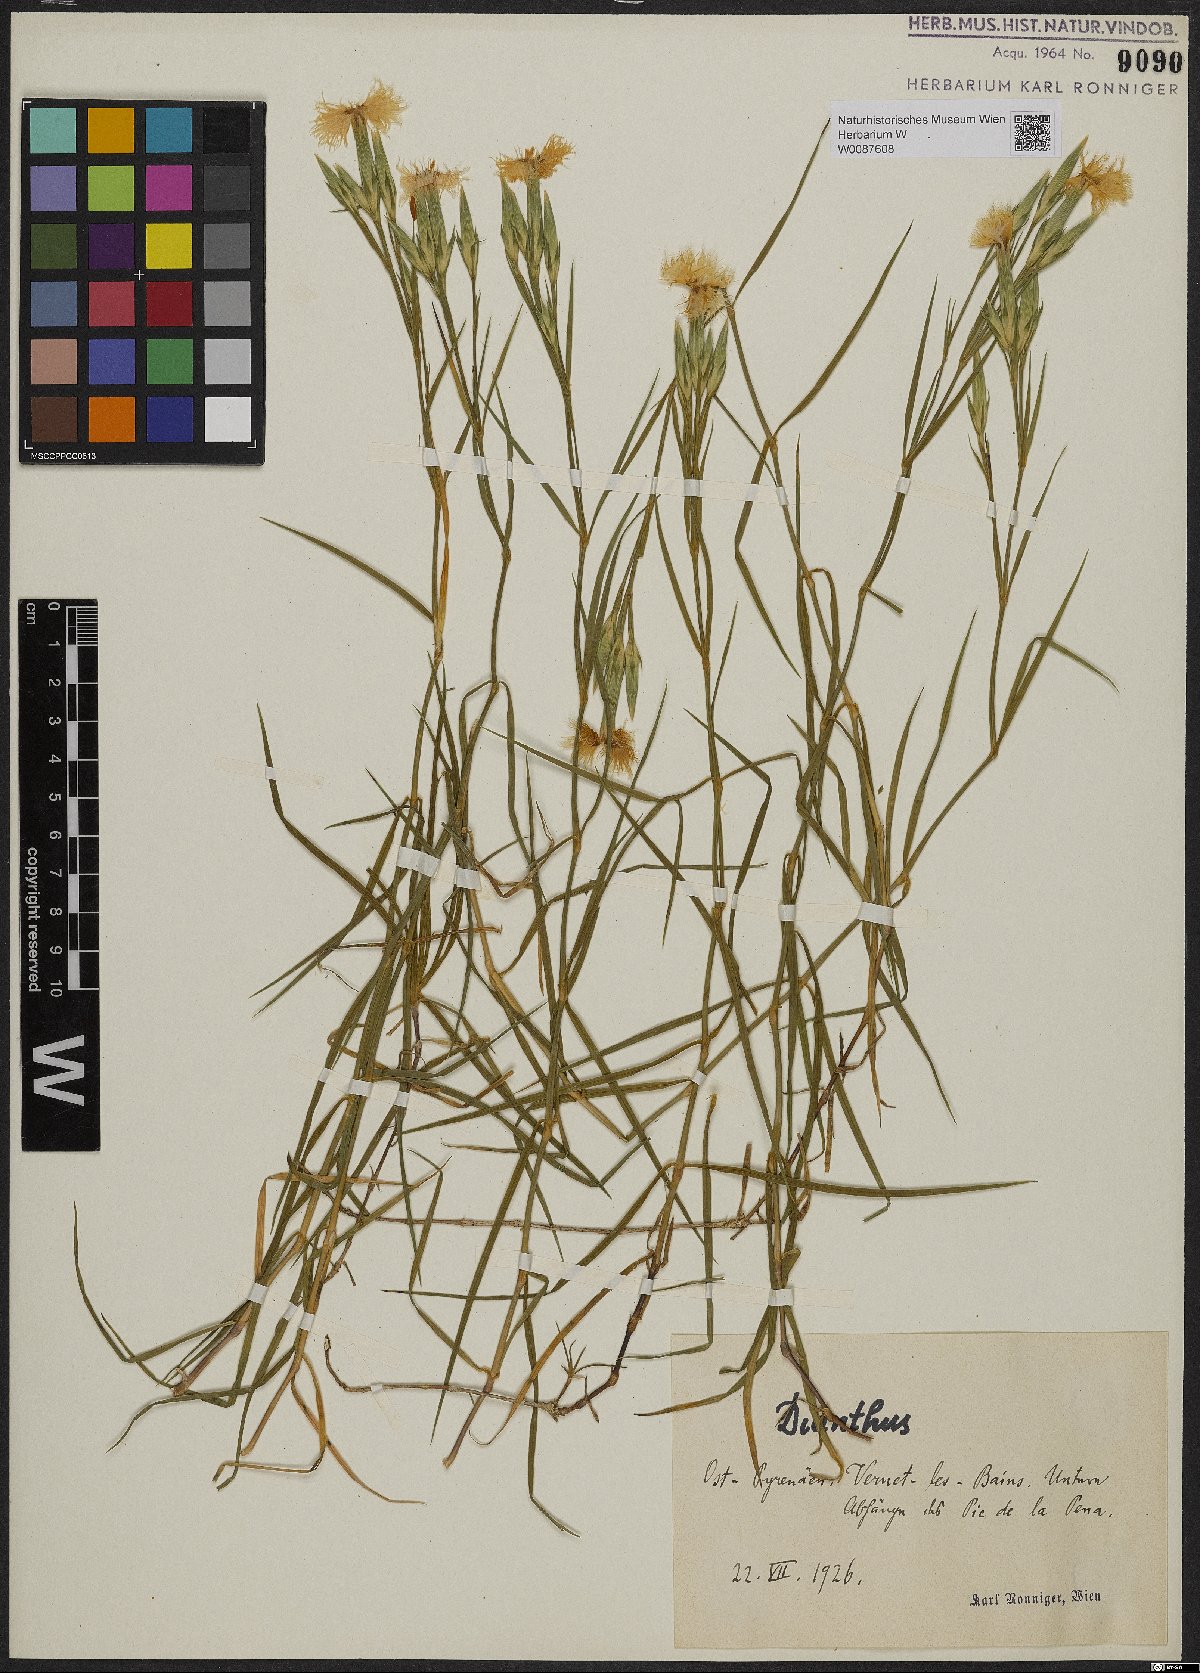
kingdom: Plantae
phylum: Tracheophyta
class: Magnoliopsida
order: Caryophyllales
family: Caryophyllaceae
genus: Dianthus
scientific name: Dianthus
